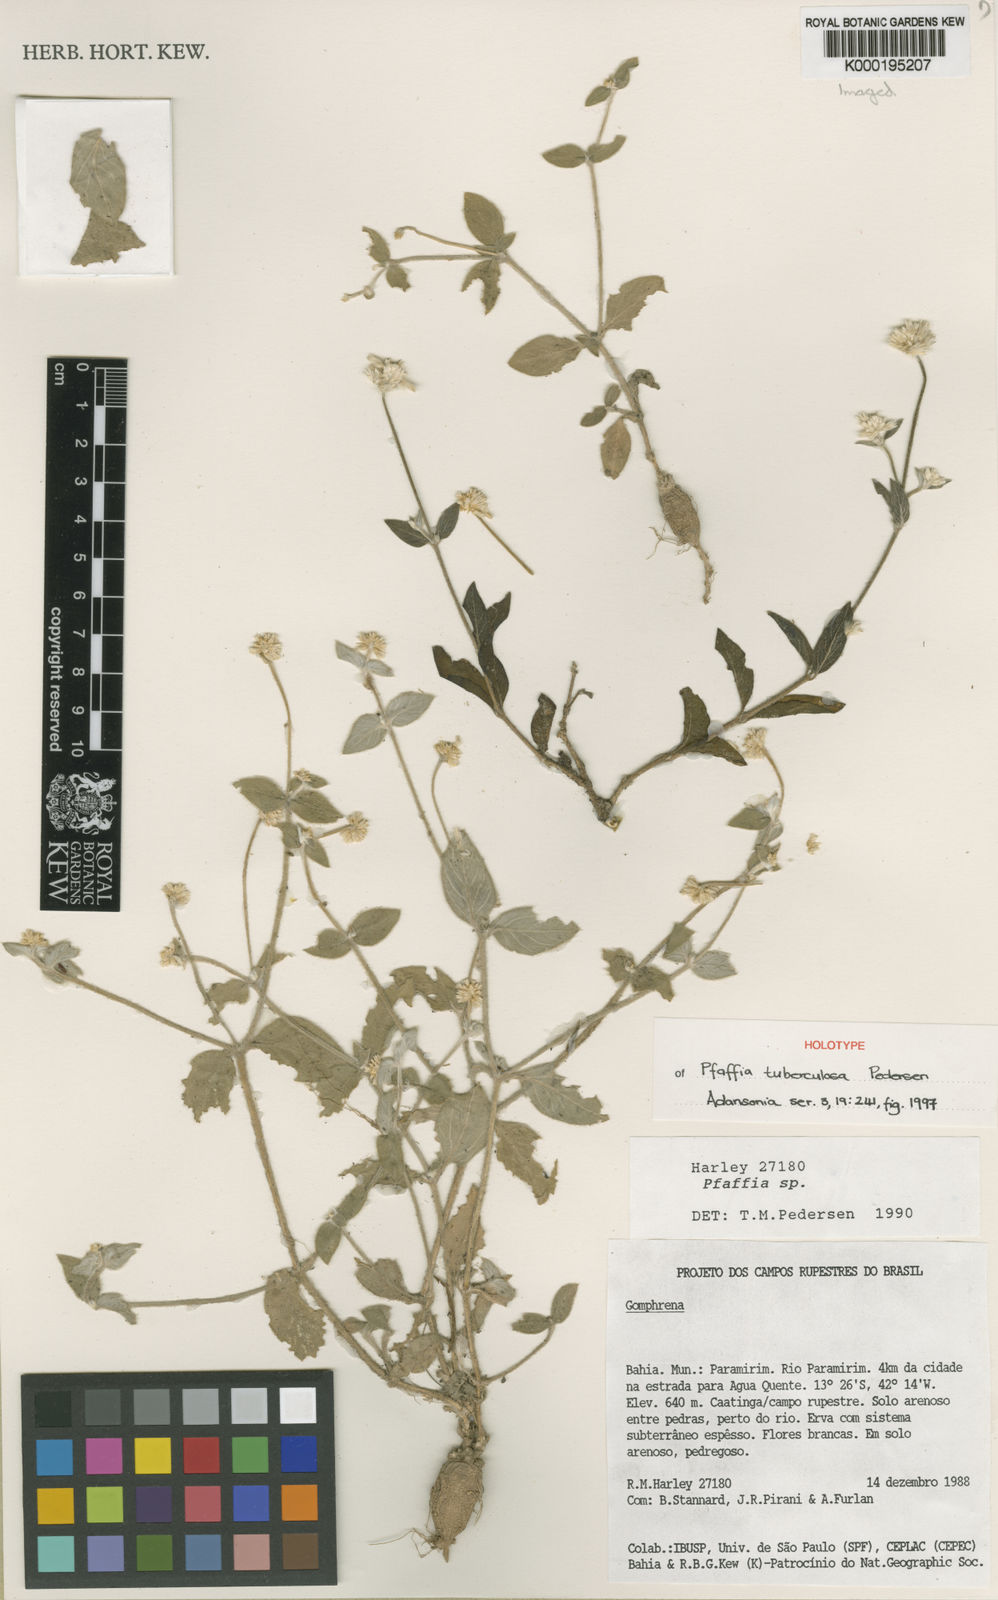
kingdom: Plantae
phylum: Tracheophyta
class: Magnoliopsida
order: Caryophyllales
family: Amaranthaceae
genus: Pfaffia
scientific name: Pfaffia tuberculosa
